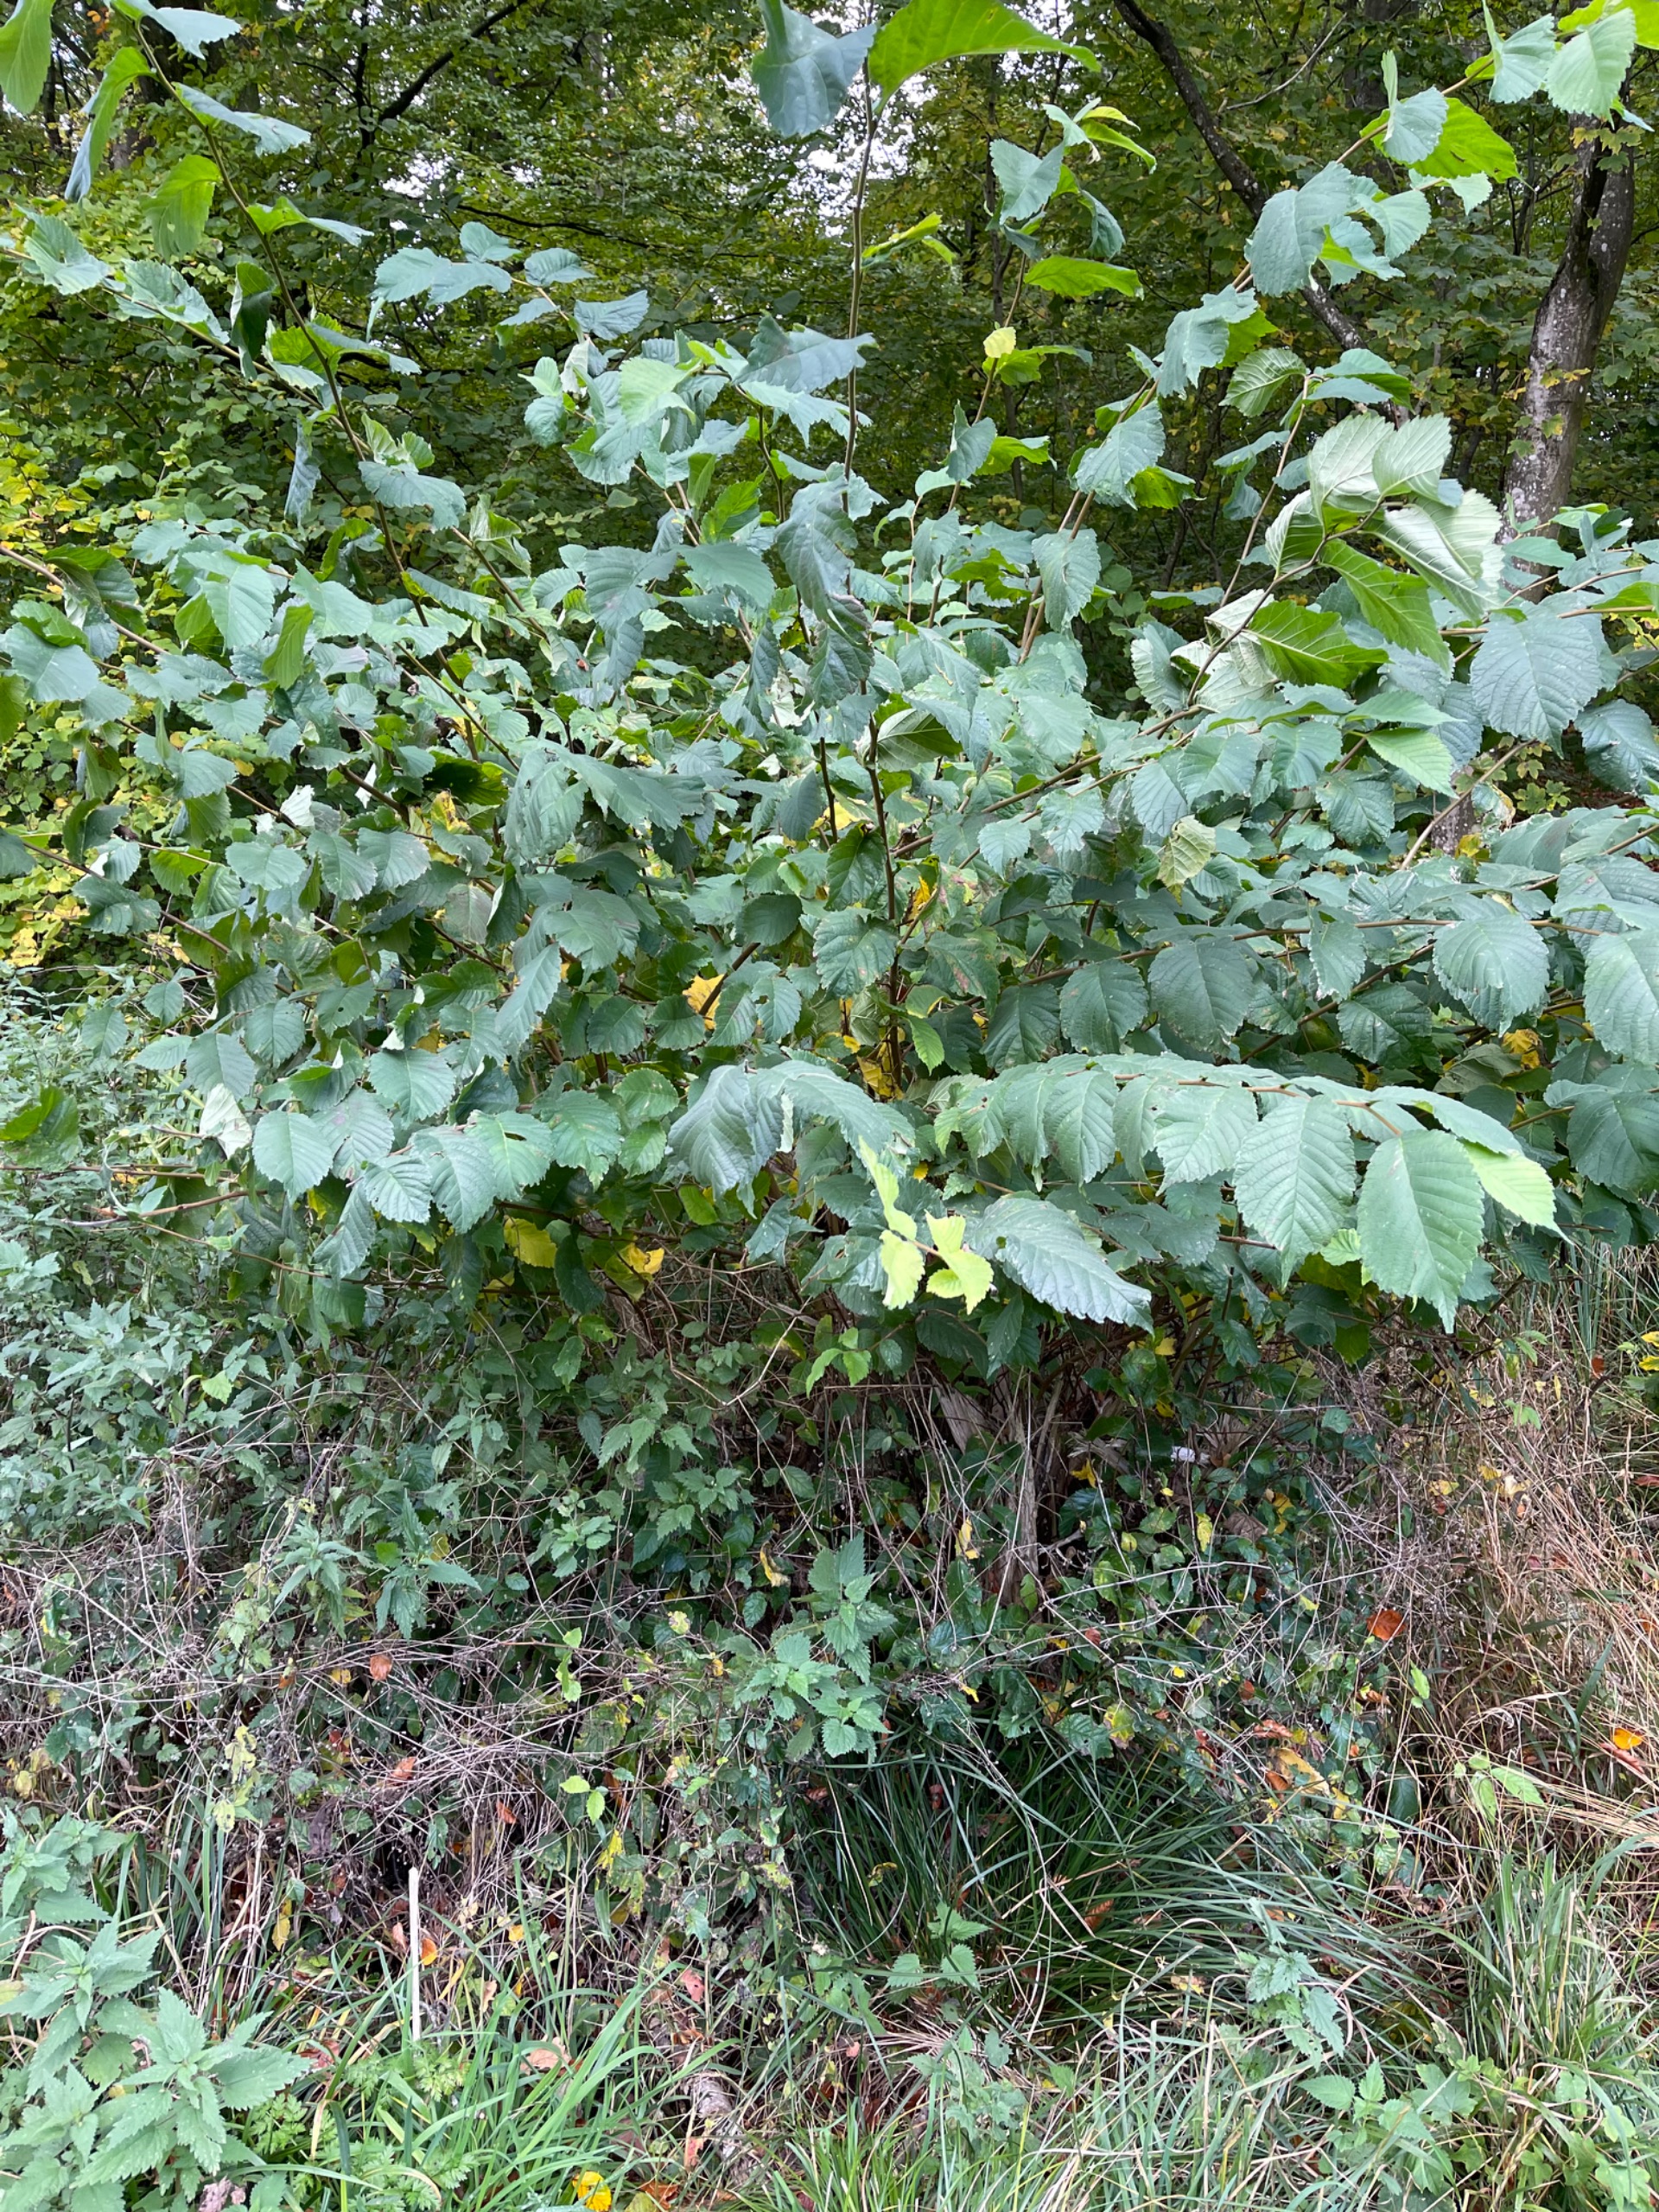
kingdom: Plantae
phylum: Tracheophyta
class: Magnoliopsida
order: Rosales
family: Ulmaceae
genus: Ulmus
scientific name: Ulmus glabra
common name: Skov-elm/storbladet elm
